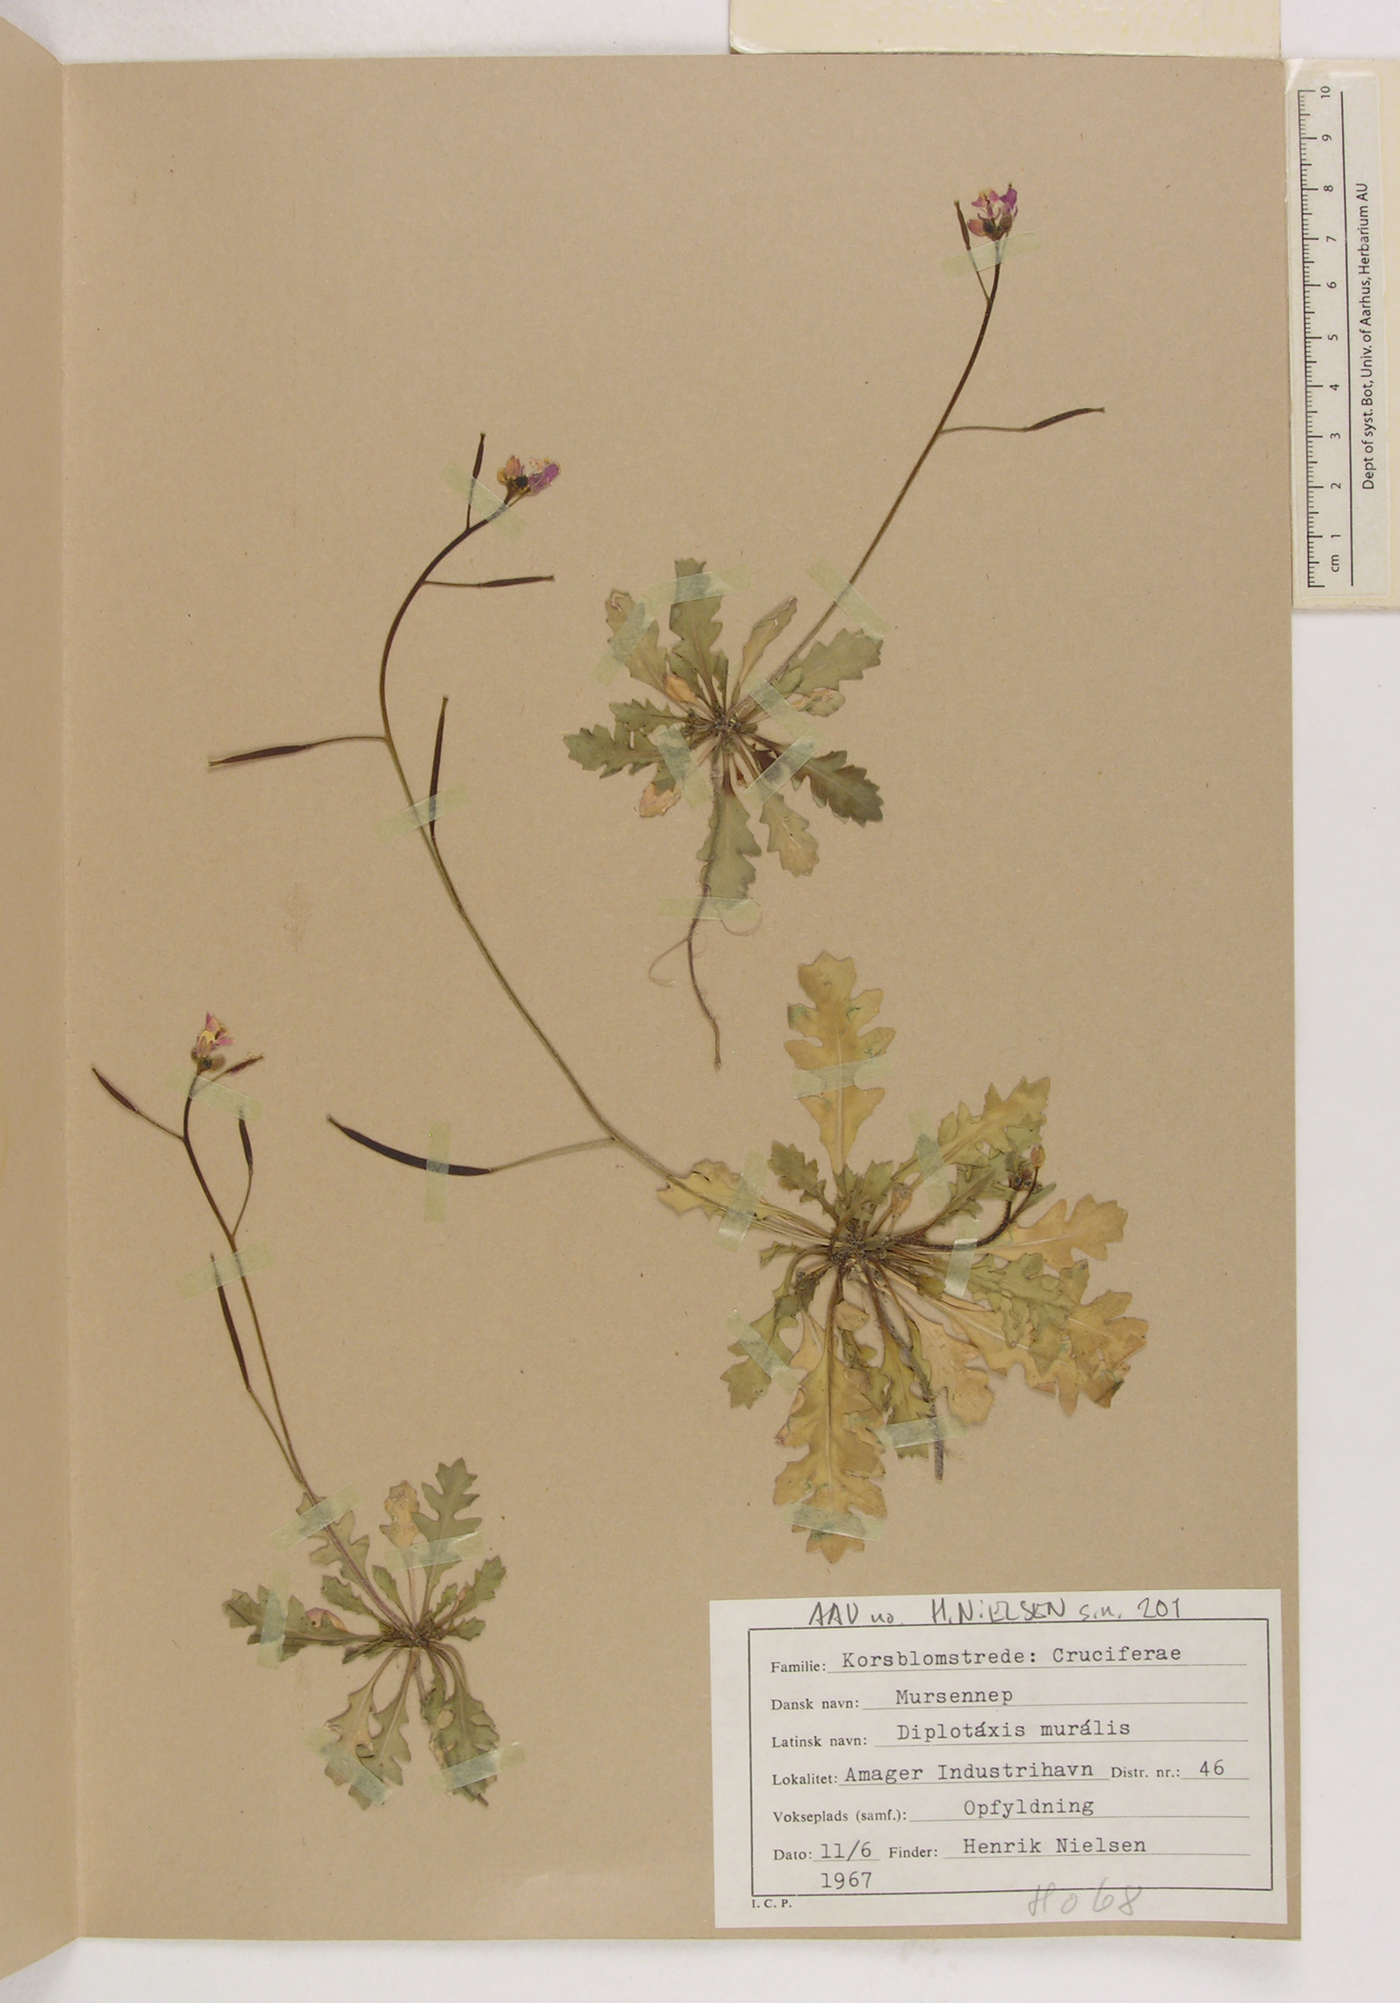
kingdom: Plantae
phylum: Tracheophyta
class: Magnoliopsida
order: Brassicales
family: Brassicaceae
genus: Diplotaxis
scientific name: Diplotaxis muralis
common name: Annual wall-rocket
